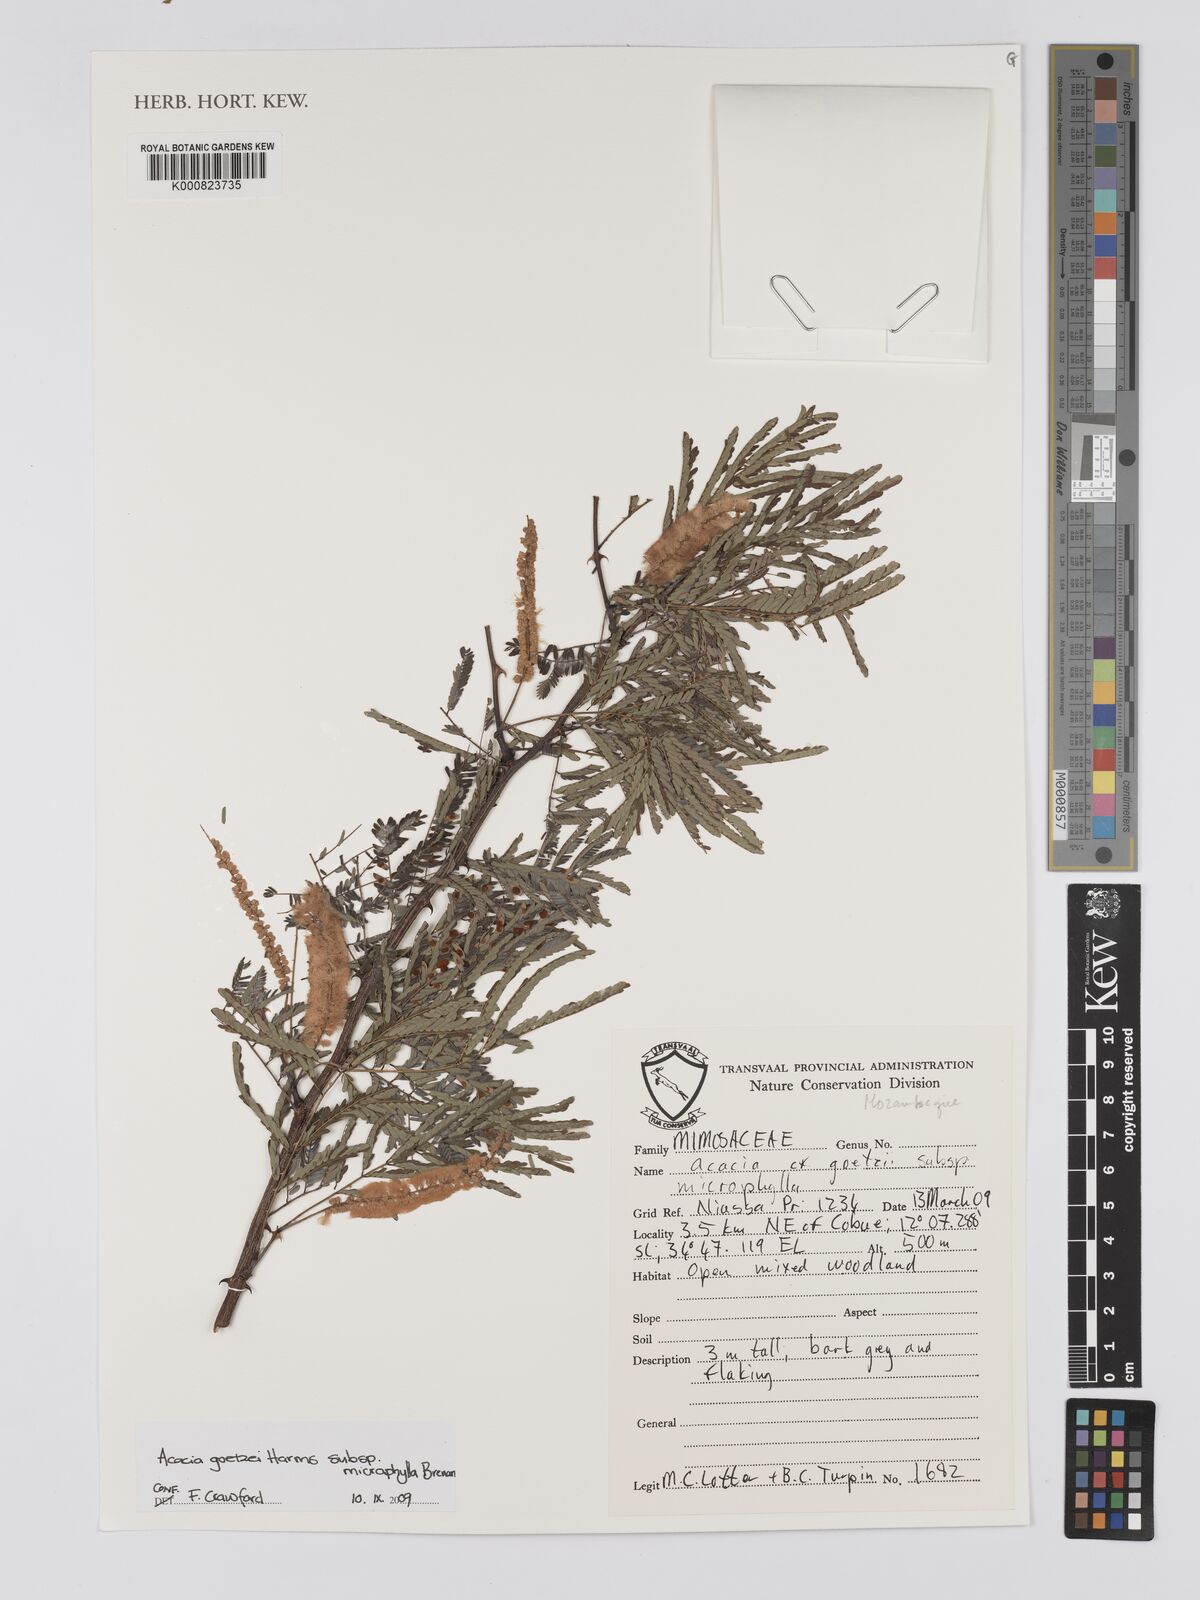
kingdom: Plantae
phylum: Tracheophyta
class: Magnoliopsida
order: Fabales
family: Fabaceae
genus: Senegalia
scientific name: Senegalia goetzei
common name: Purplepod acacia
